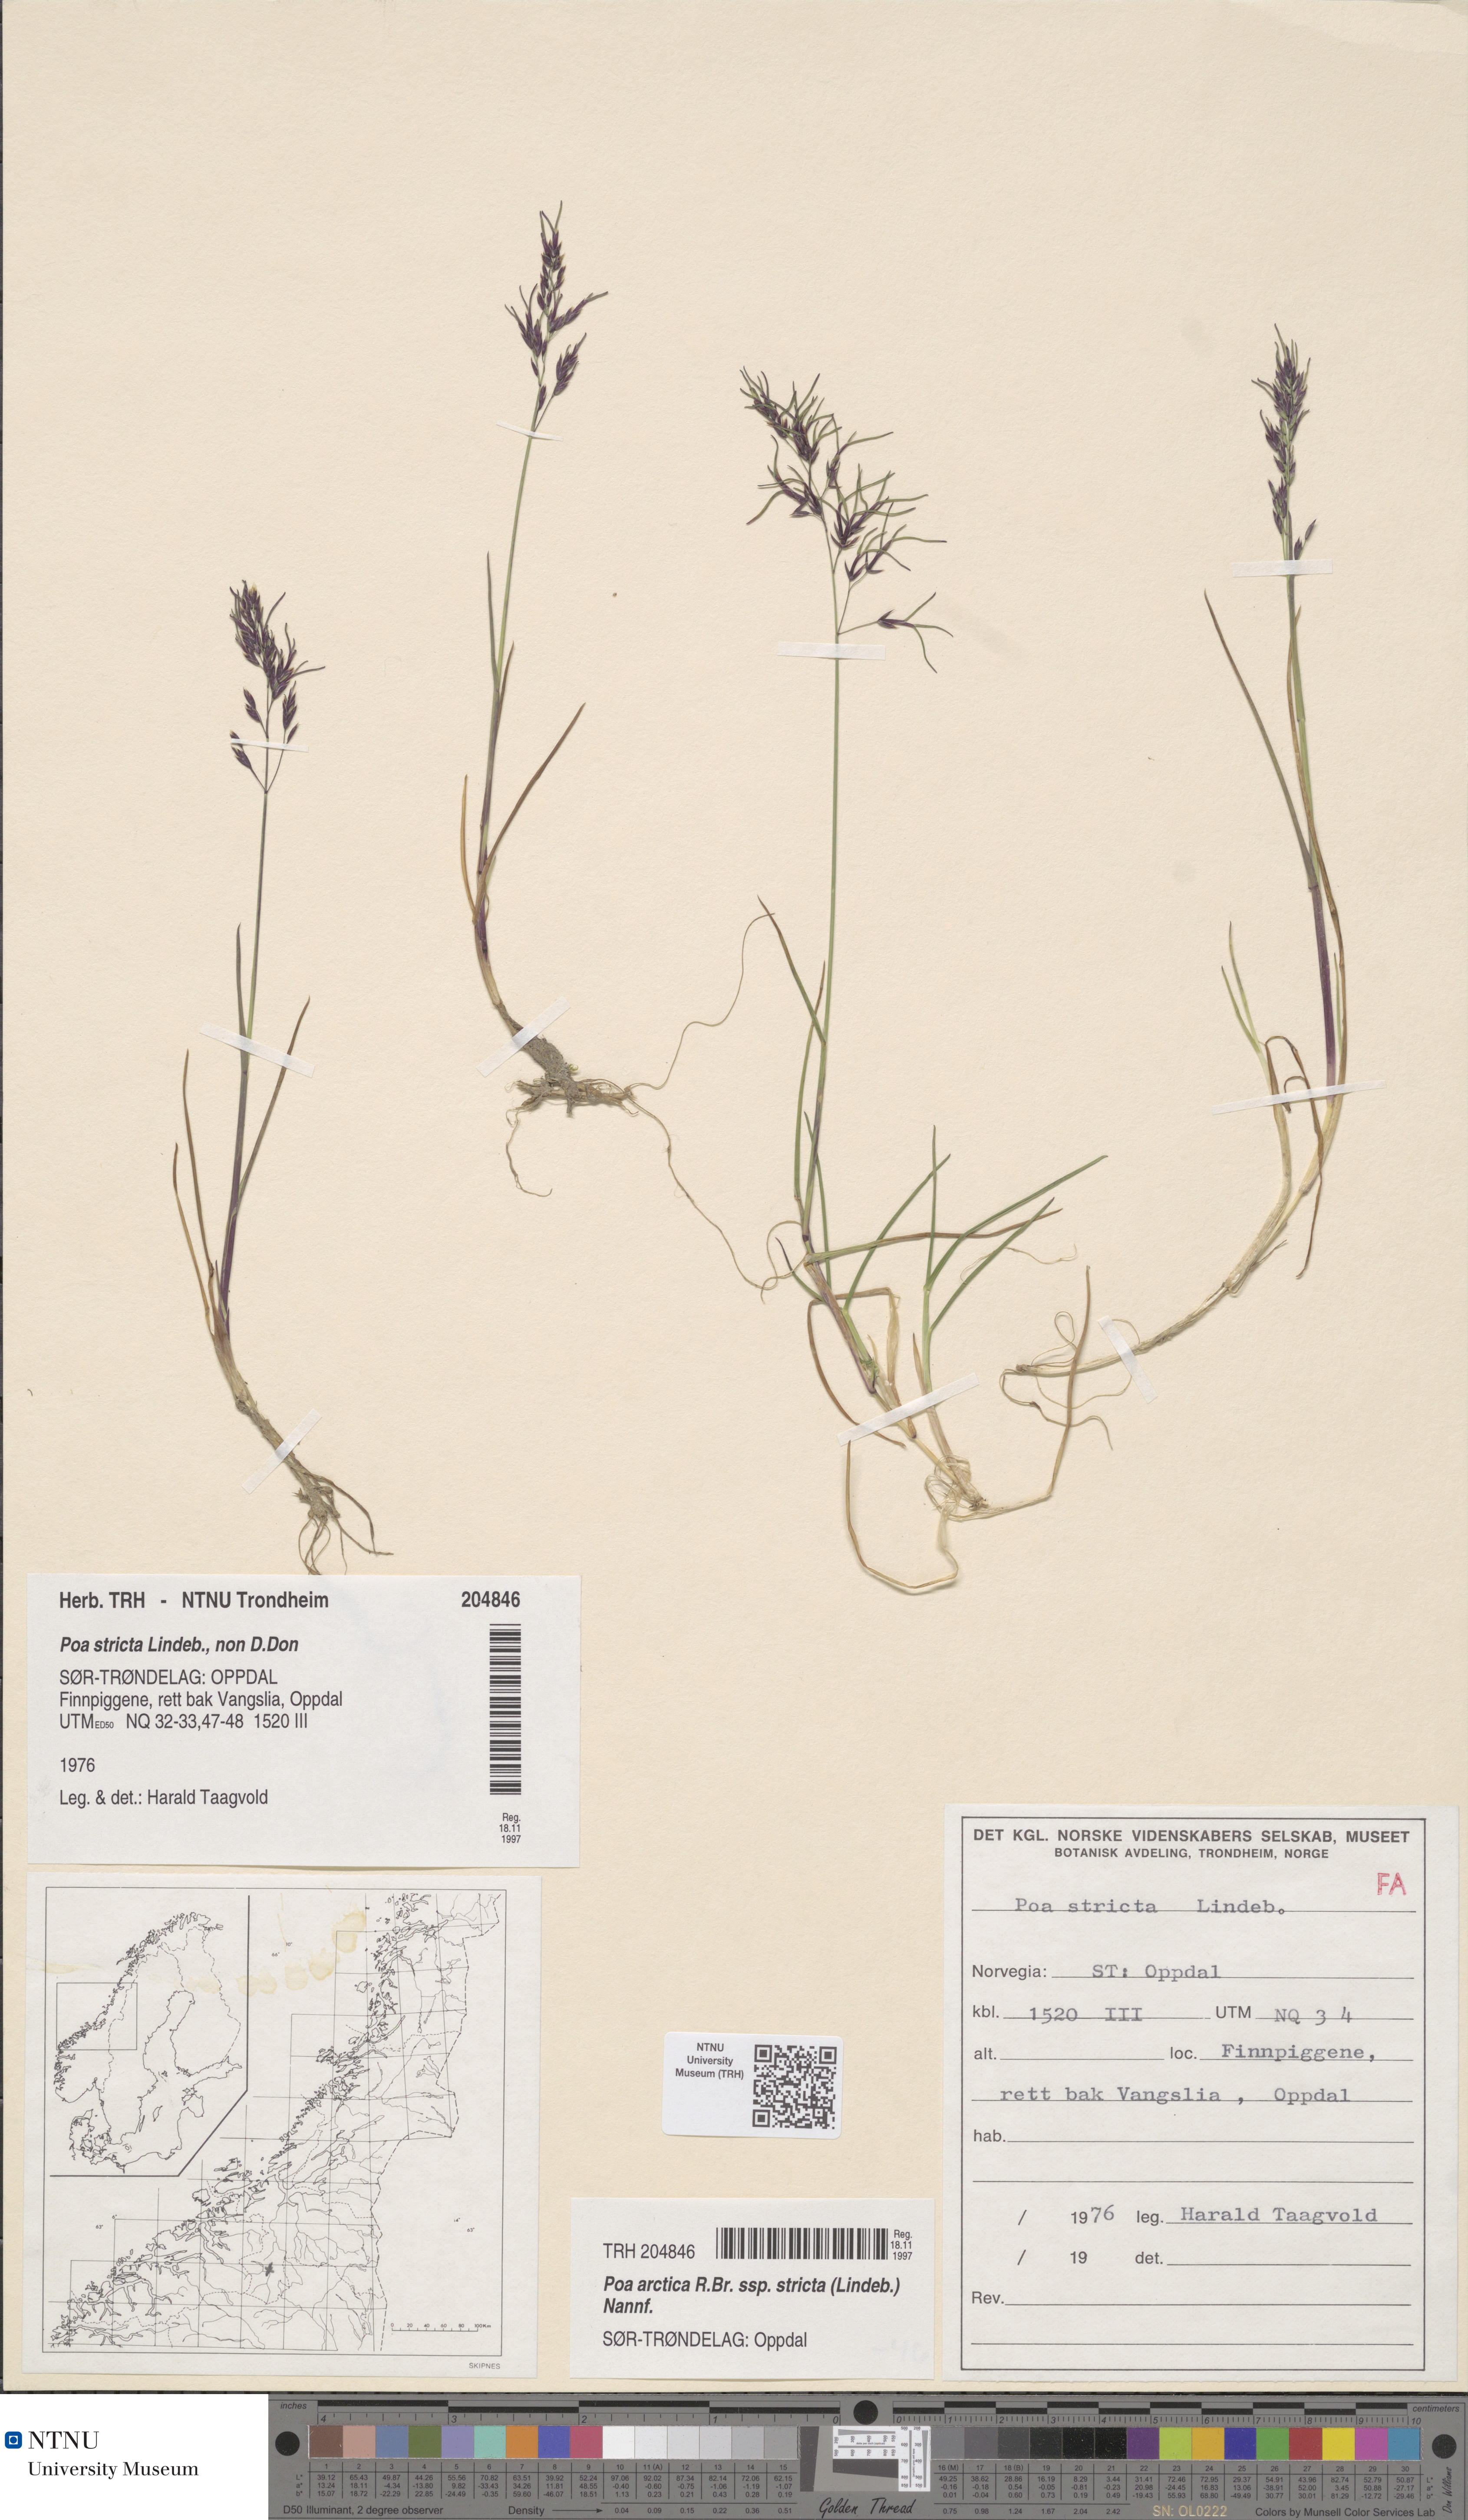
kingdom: Plantae
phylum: Tracheophyta
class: Liliopsida
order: Poales
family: Poaceae
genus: Poa
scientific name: Poa lindebergii
